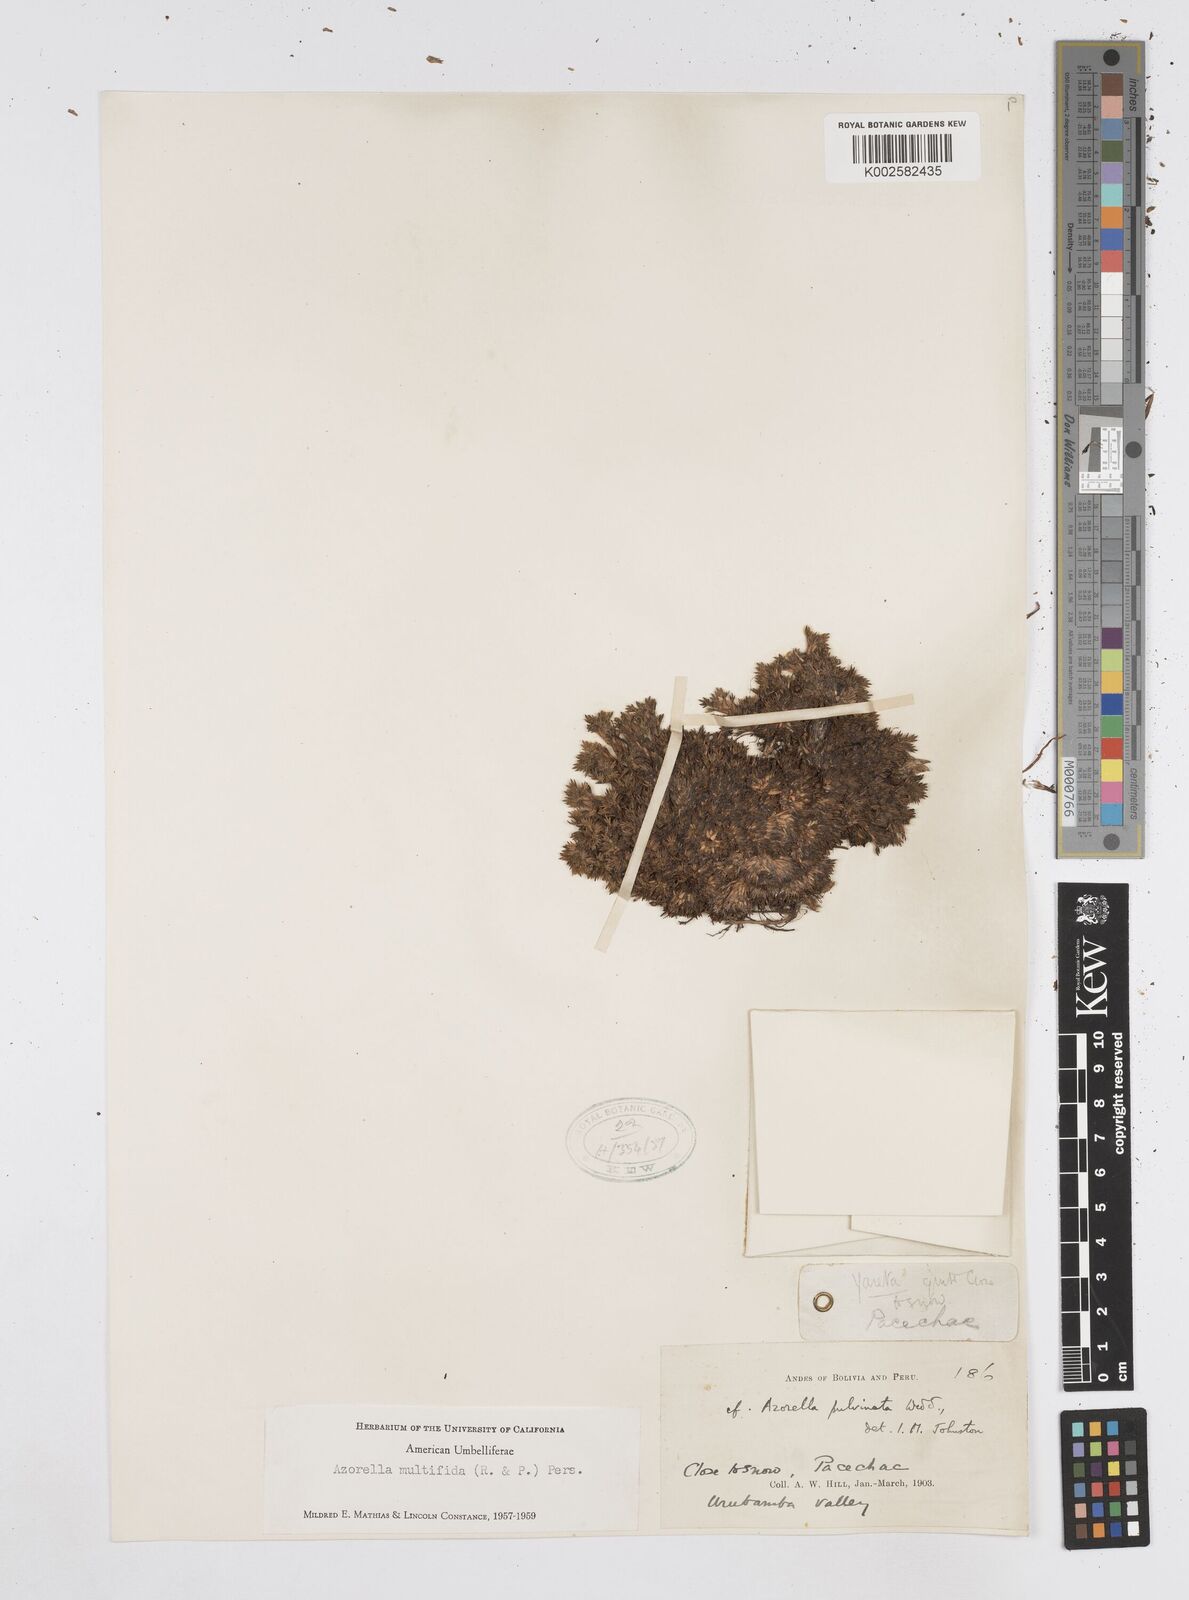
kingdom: Plantae
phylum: Tracheophyta
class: Magnoliopsida
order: Apiales
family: Apiaceae
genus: Azorella
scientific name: Azorella multifida
